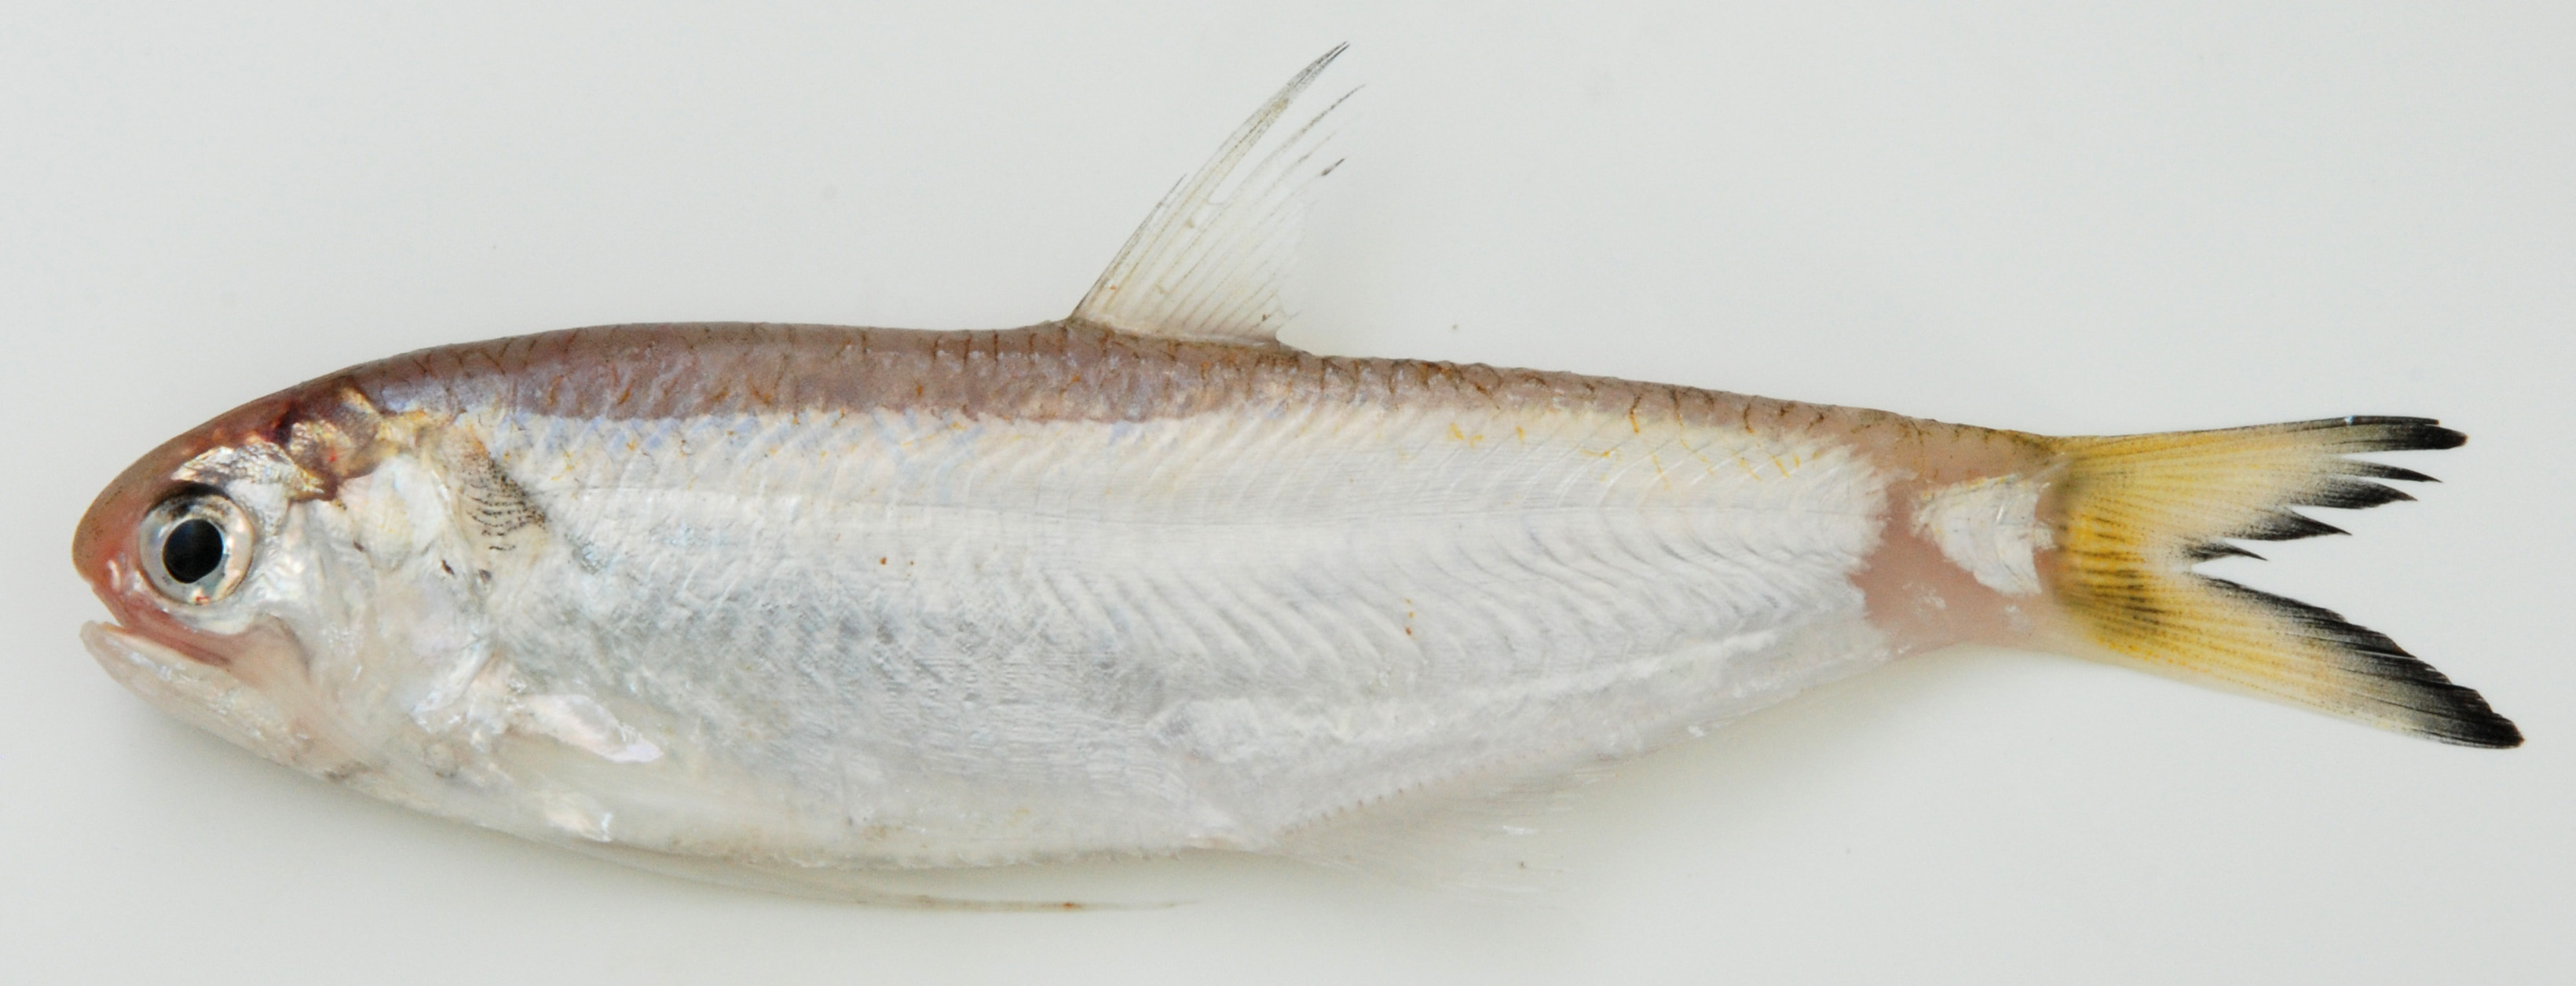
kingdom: Animalia
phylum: Chordata
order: Clupeiformes
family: Engraulidae
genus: Thryssa
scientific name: Thryssa setirostris
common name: Longjaw thryssa
